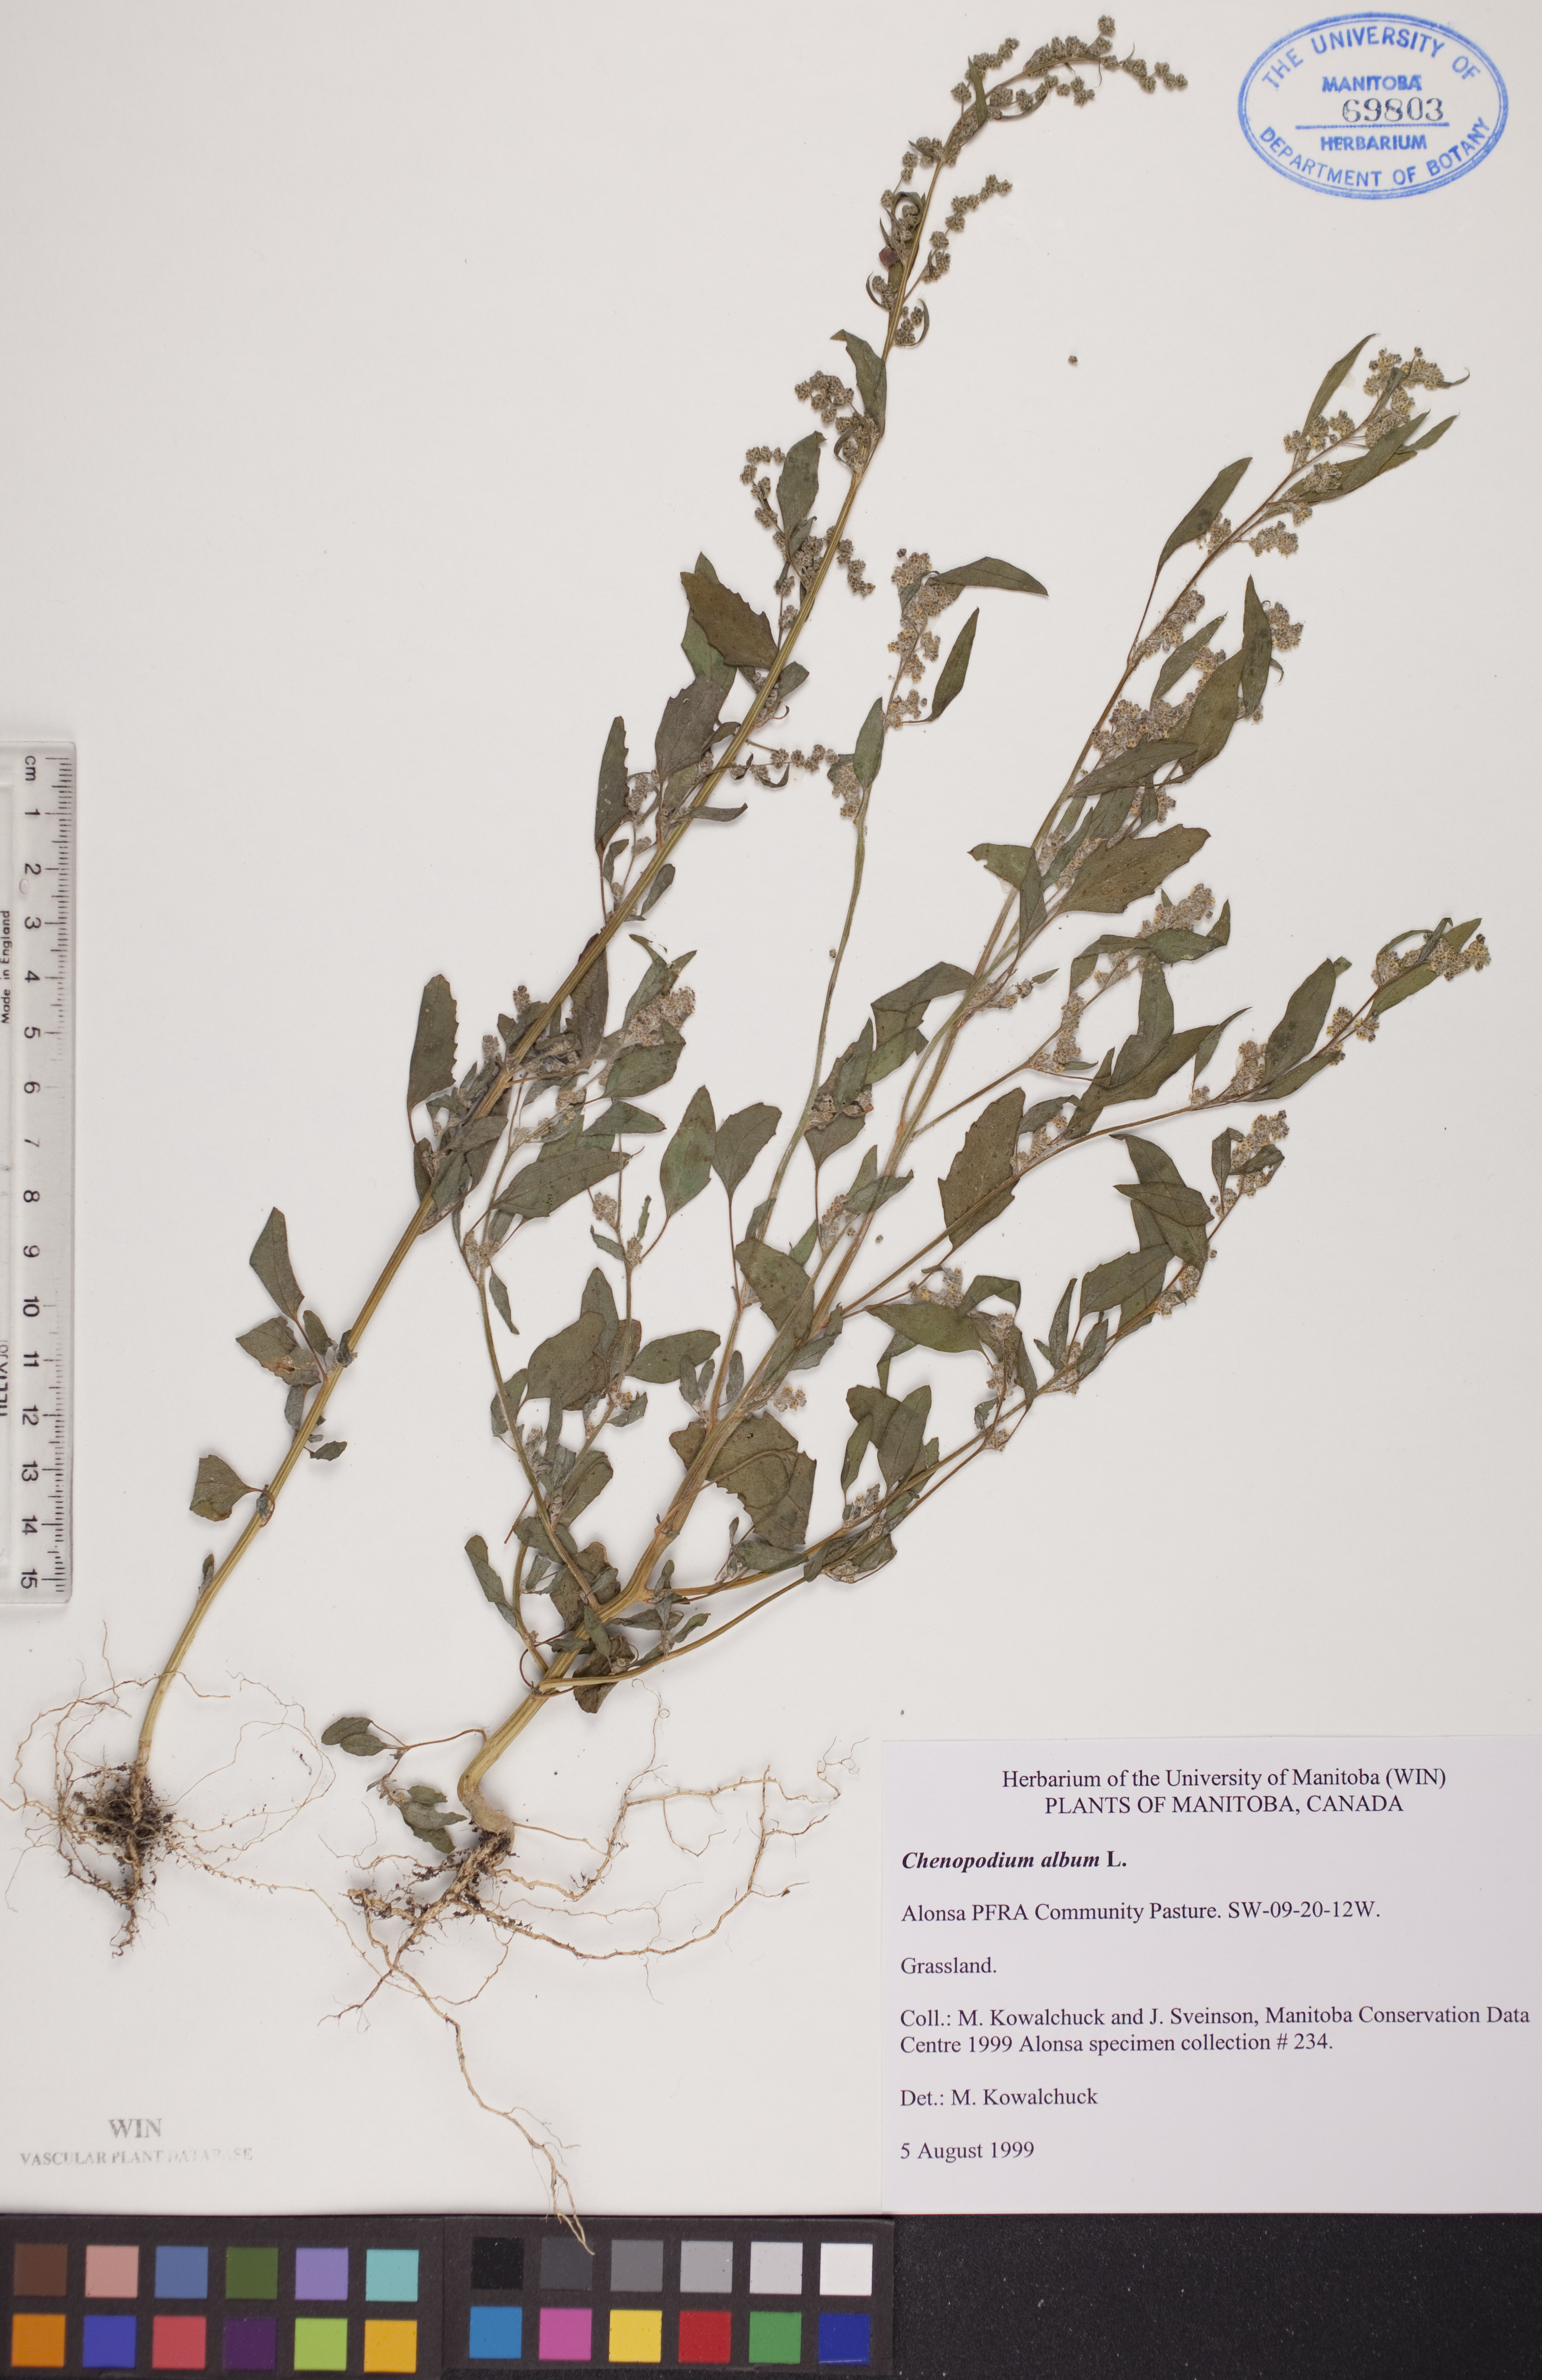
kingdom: Plantae
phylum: Tracheophyta
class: Magnoliopsida
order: Caryophyllales
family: Amaranthaceae
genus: Chenopodium
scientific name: Chenopodium album
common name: Fat-hen
